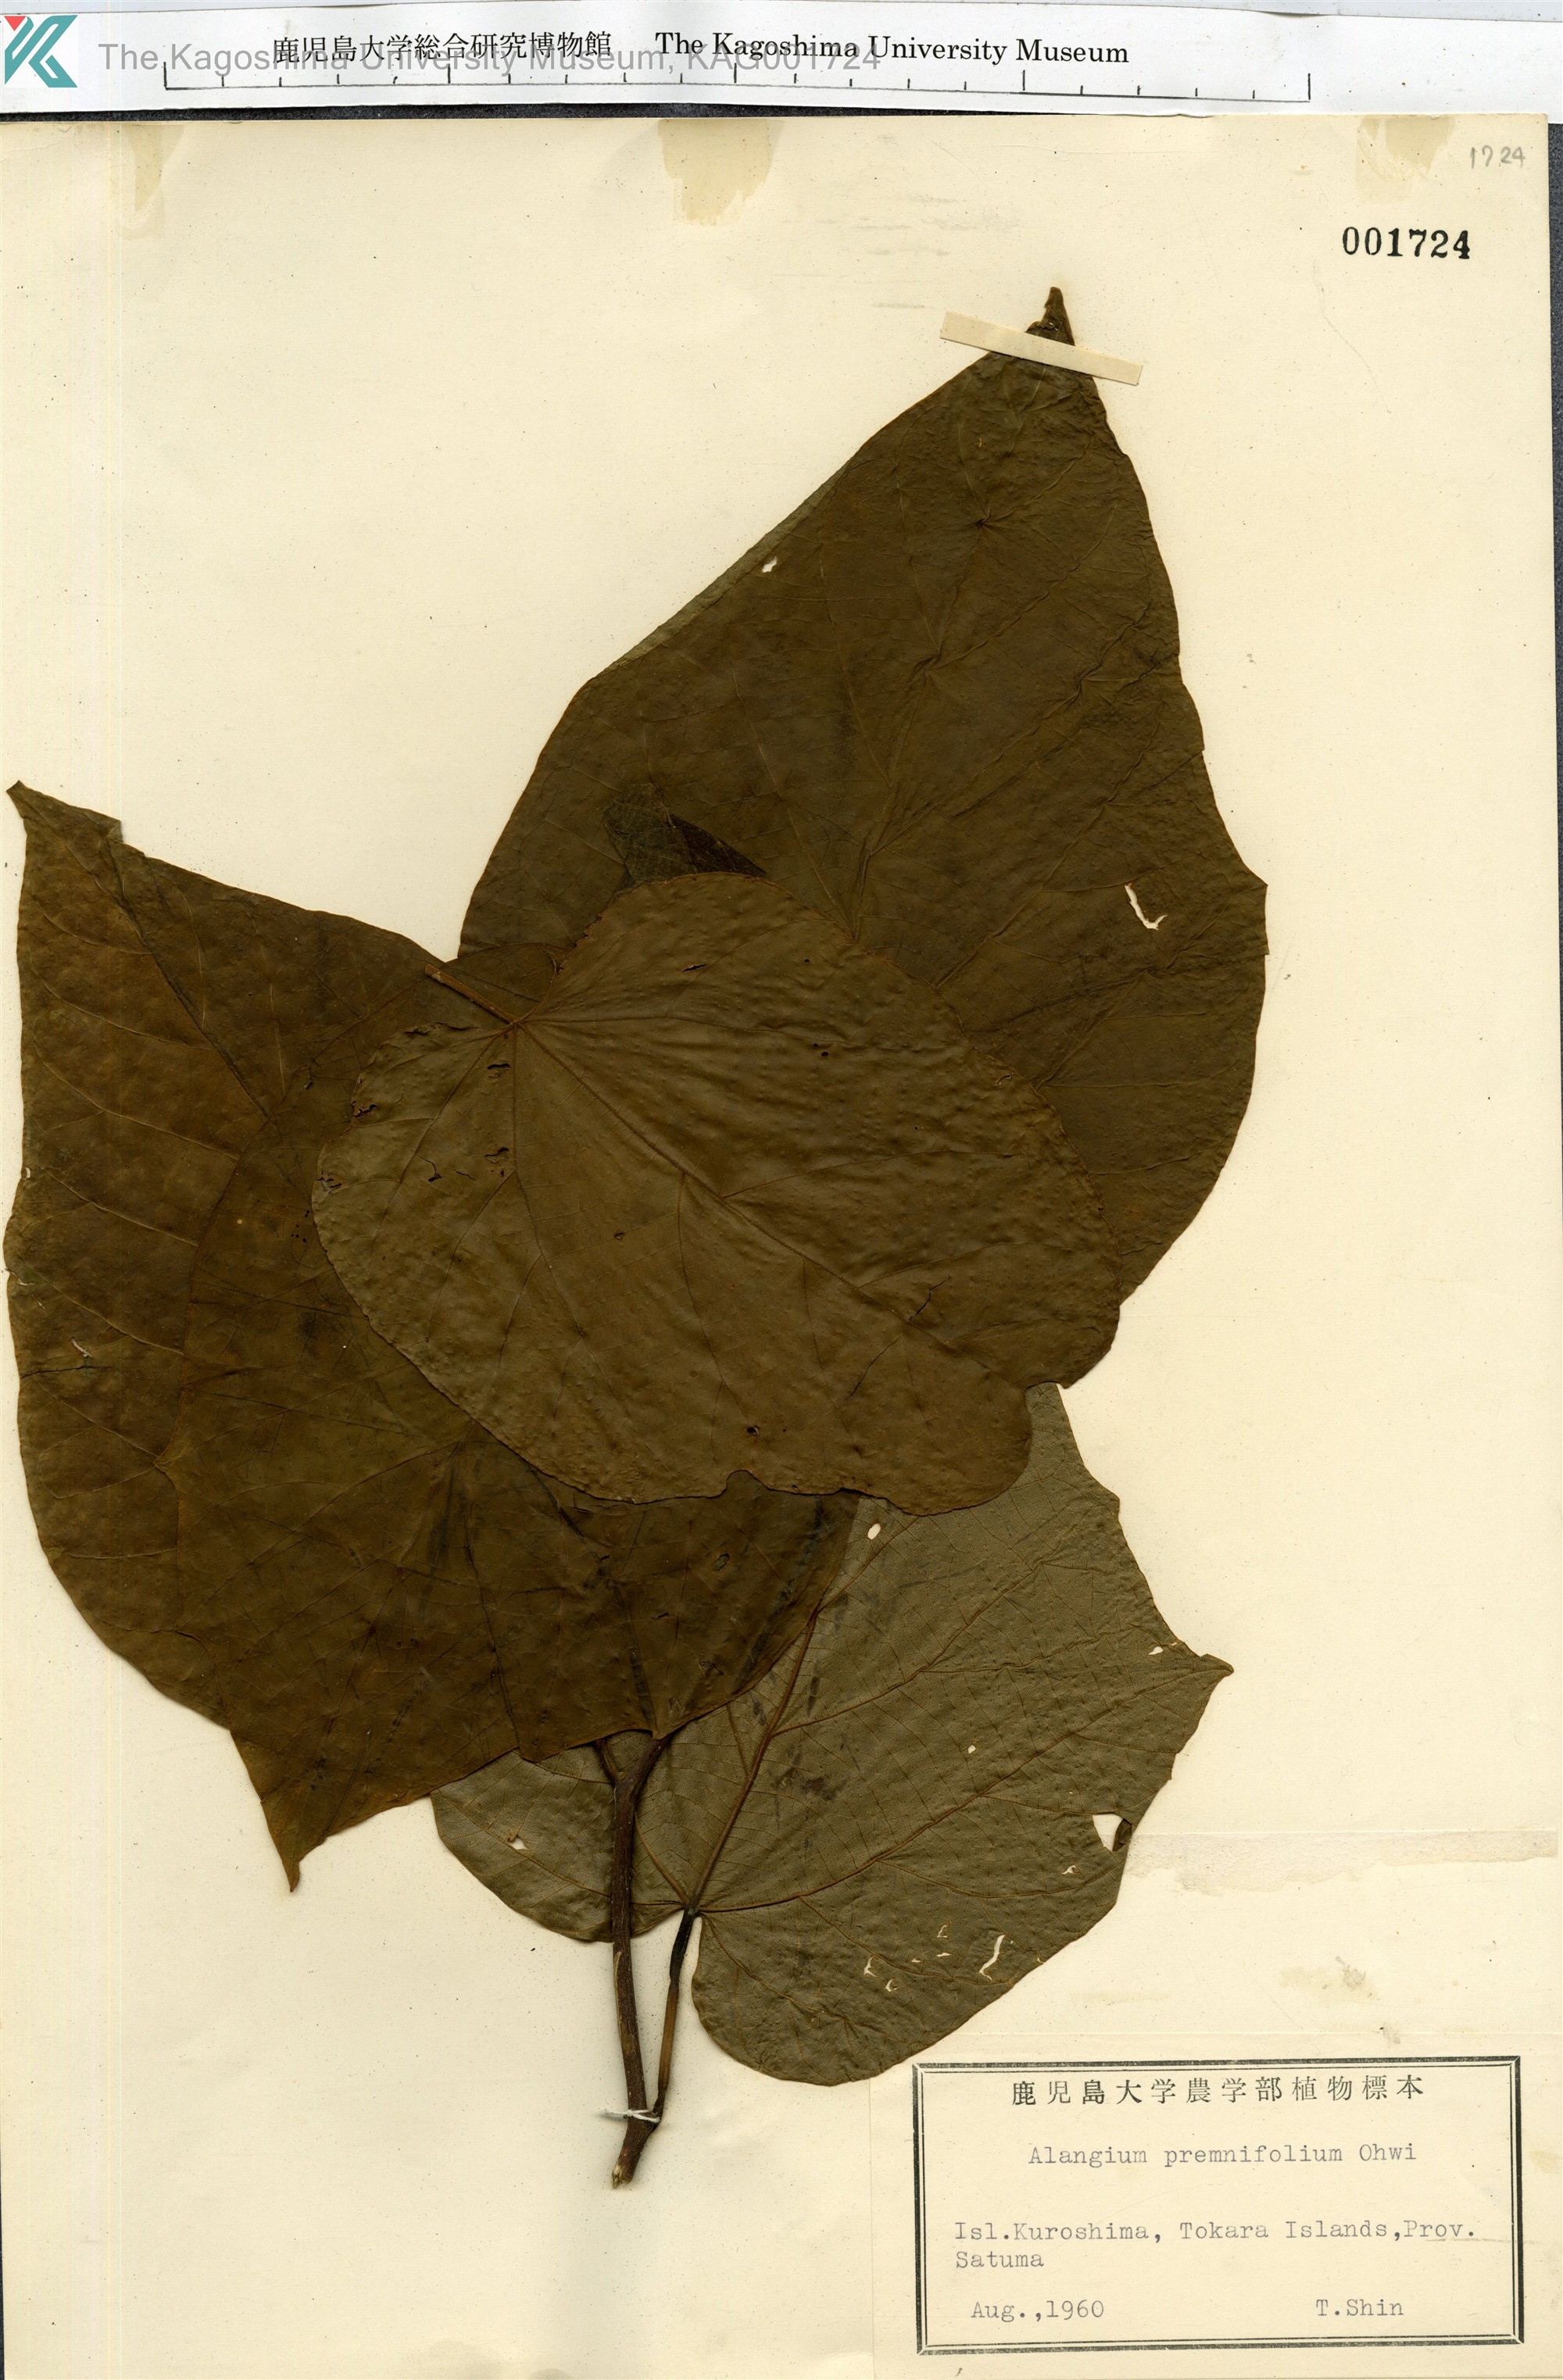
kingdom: Plantae
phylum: Tracheophyta
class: Magnoliopsida
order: Cornales
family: Cornaceae
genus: Alangium
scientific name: Alangium premnifolium
